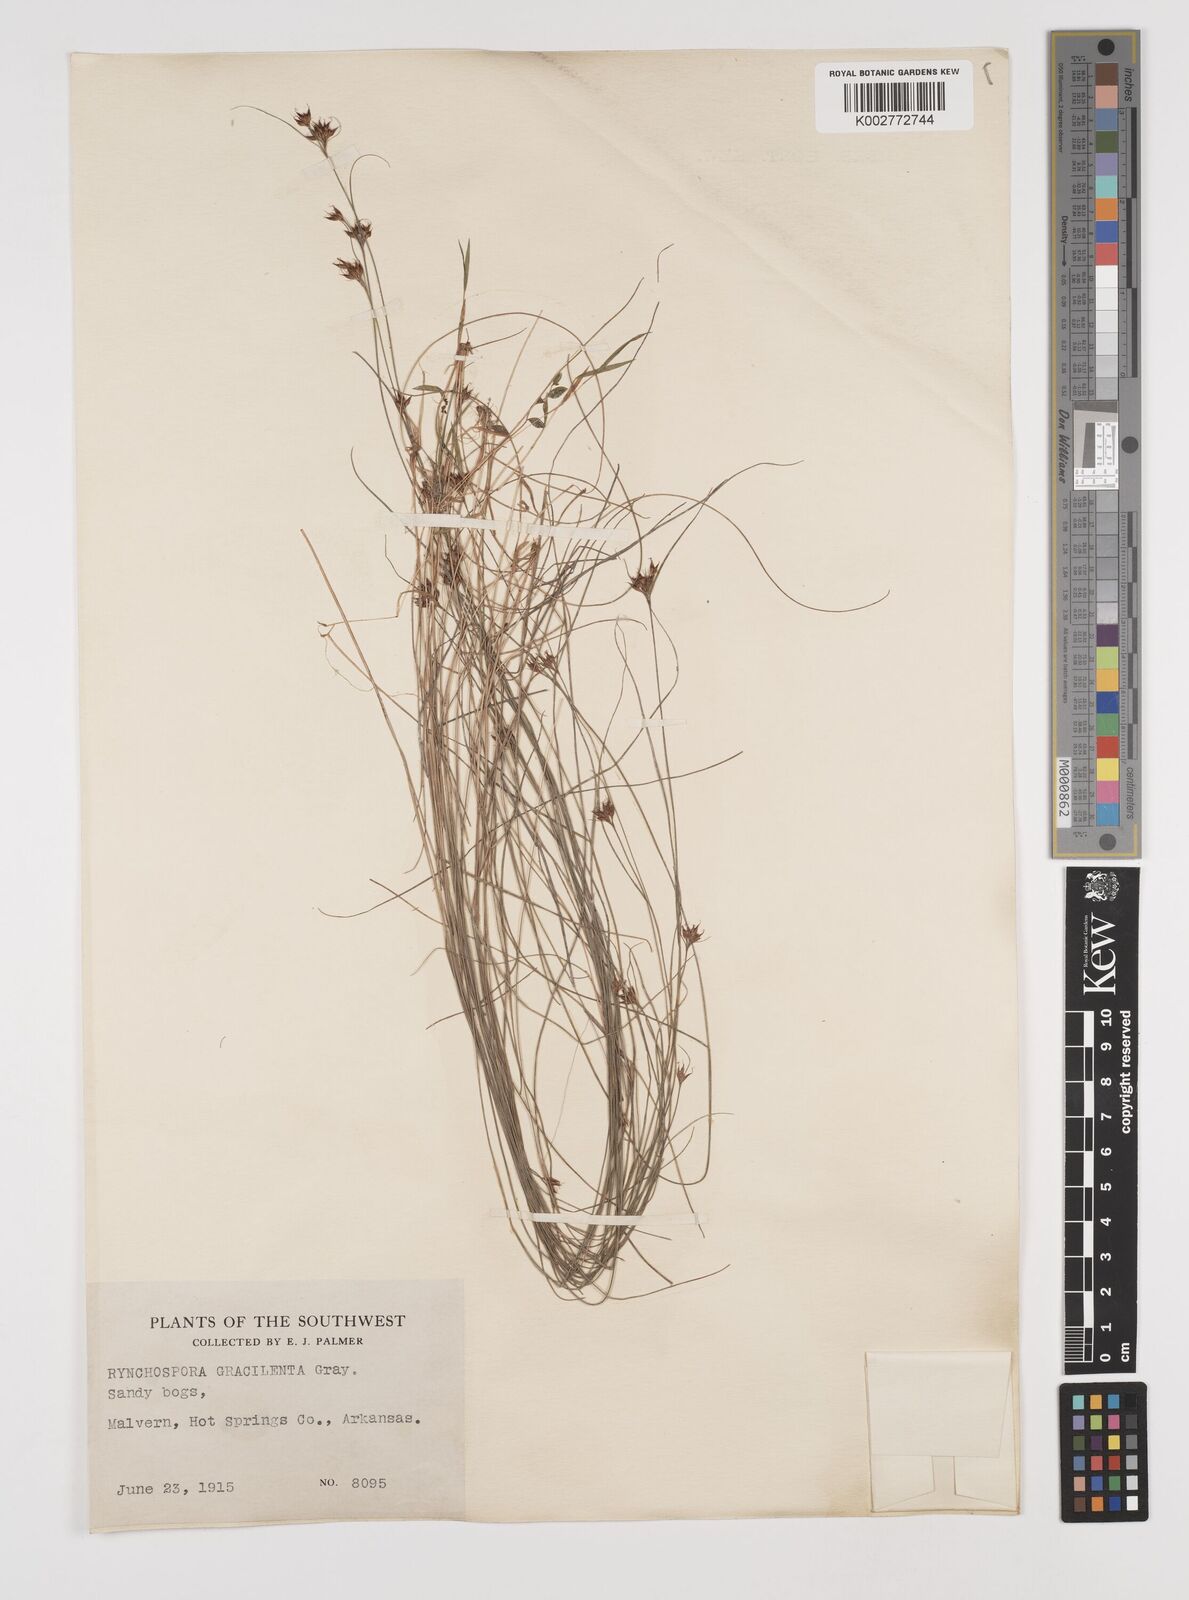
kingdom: Plantae
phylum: Tracheophyta
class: Liliopsida
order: Poales
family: Cyperaceae
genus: Rhynchospora
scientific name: Rhynchospora gracilenta
